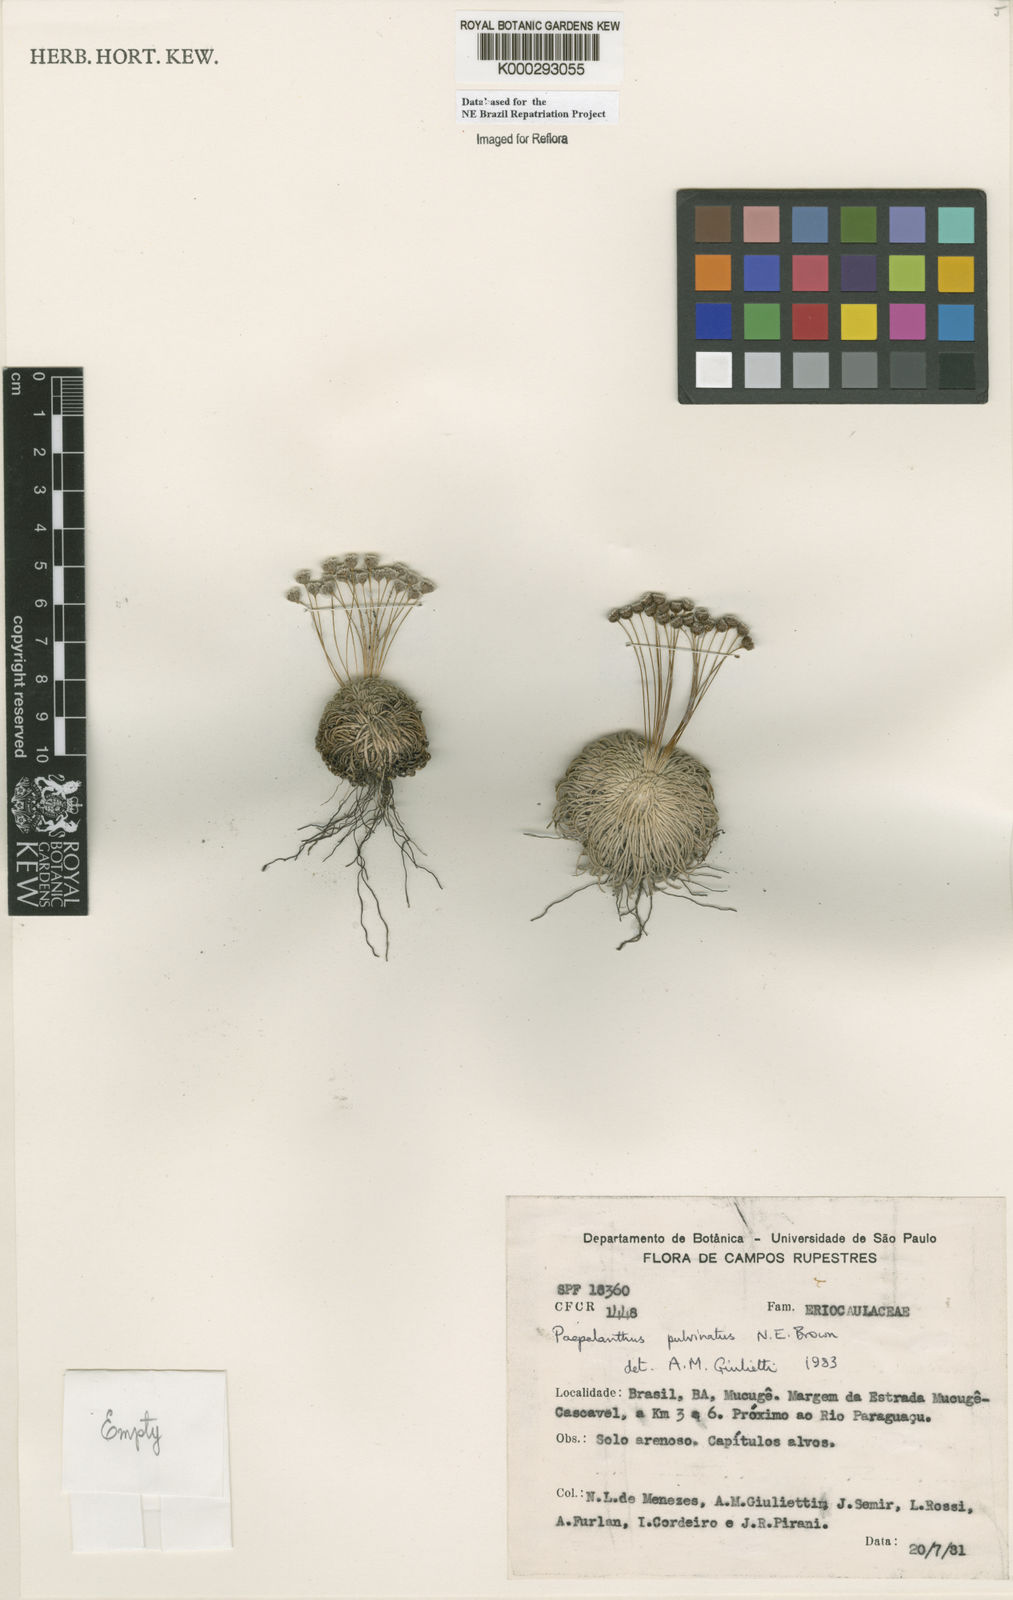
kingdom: Plantae
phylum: Tracheophyta
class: Liliopsida
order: Poales
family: Eriocaulaceae
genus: Paepalanthus
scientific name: Paepalanthus pulvinatus
